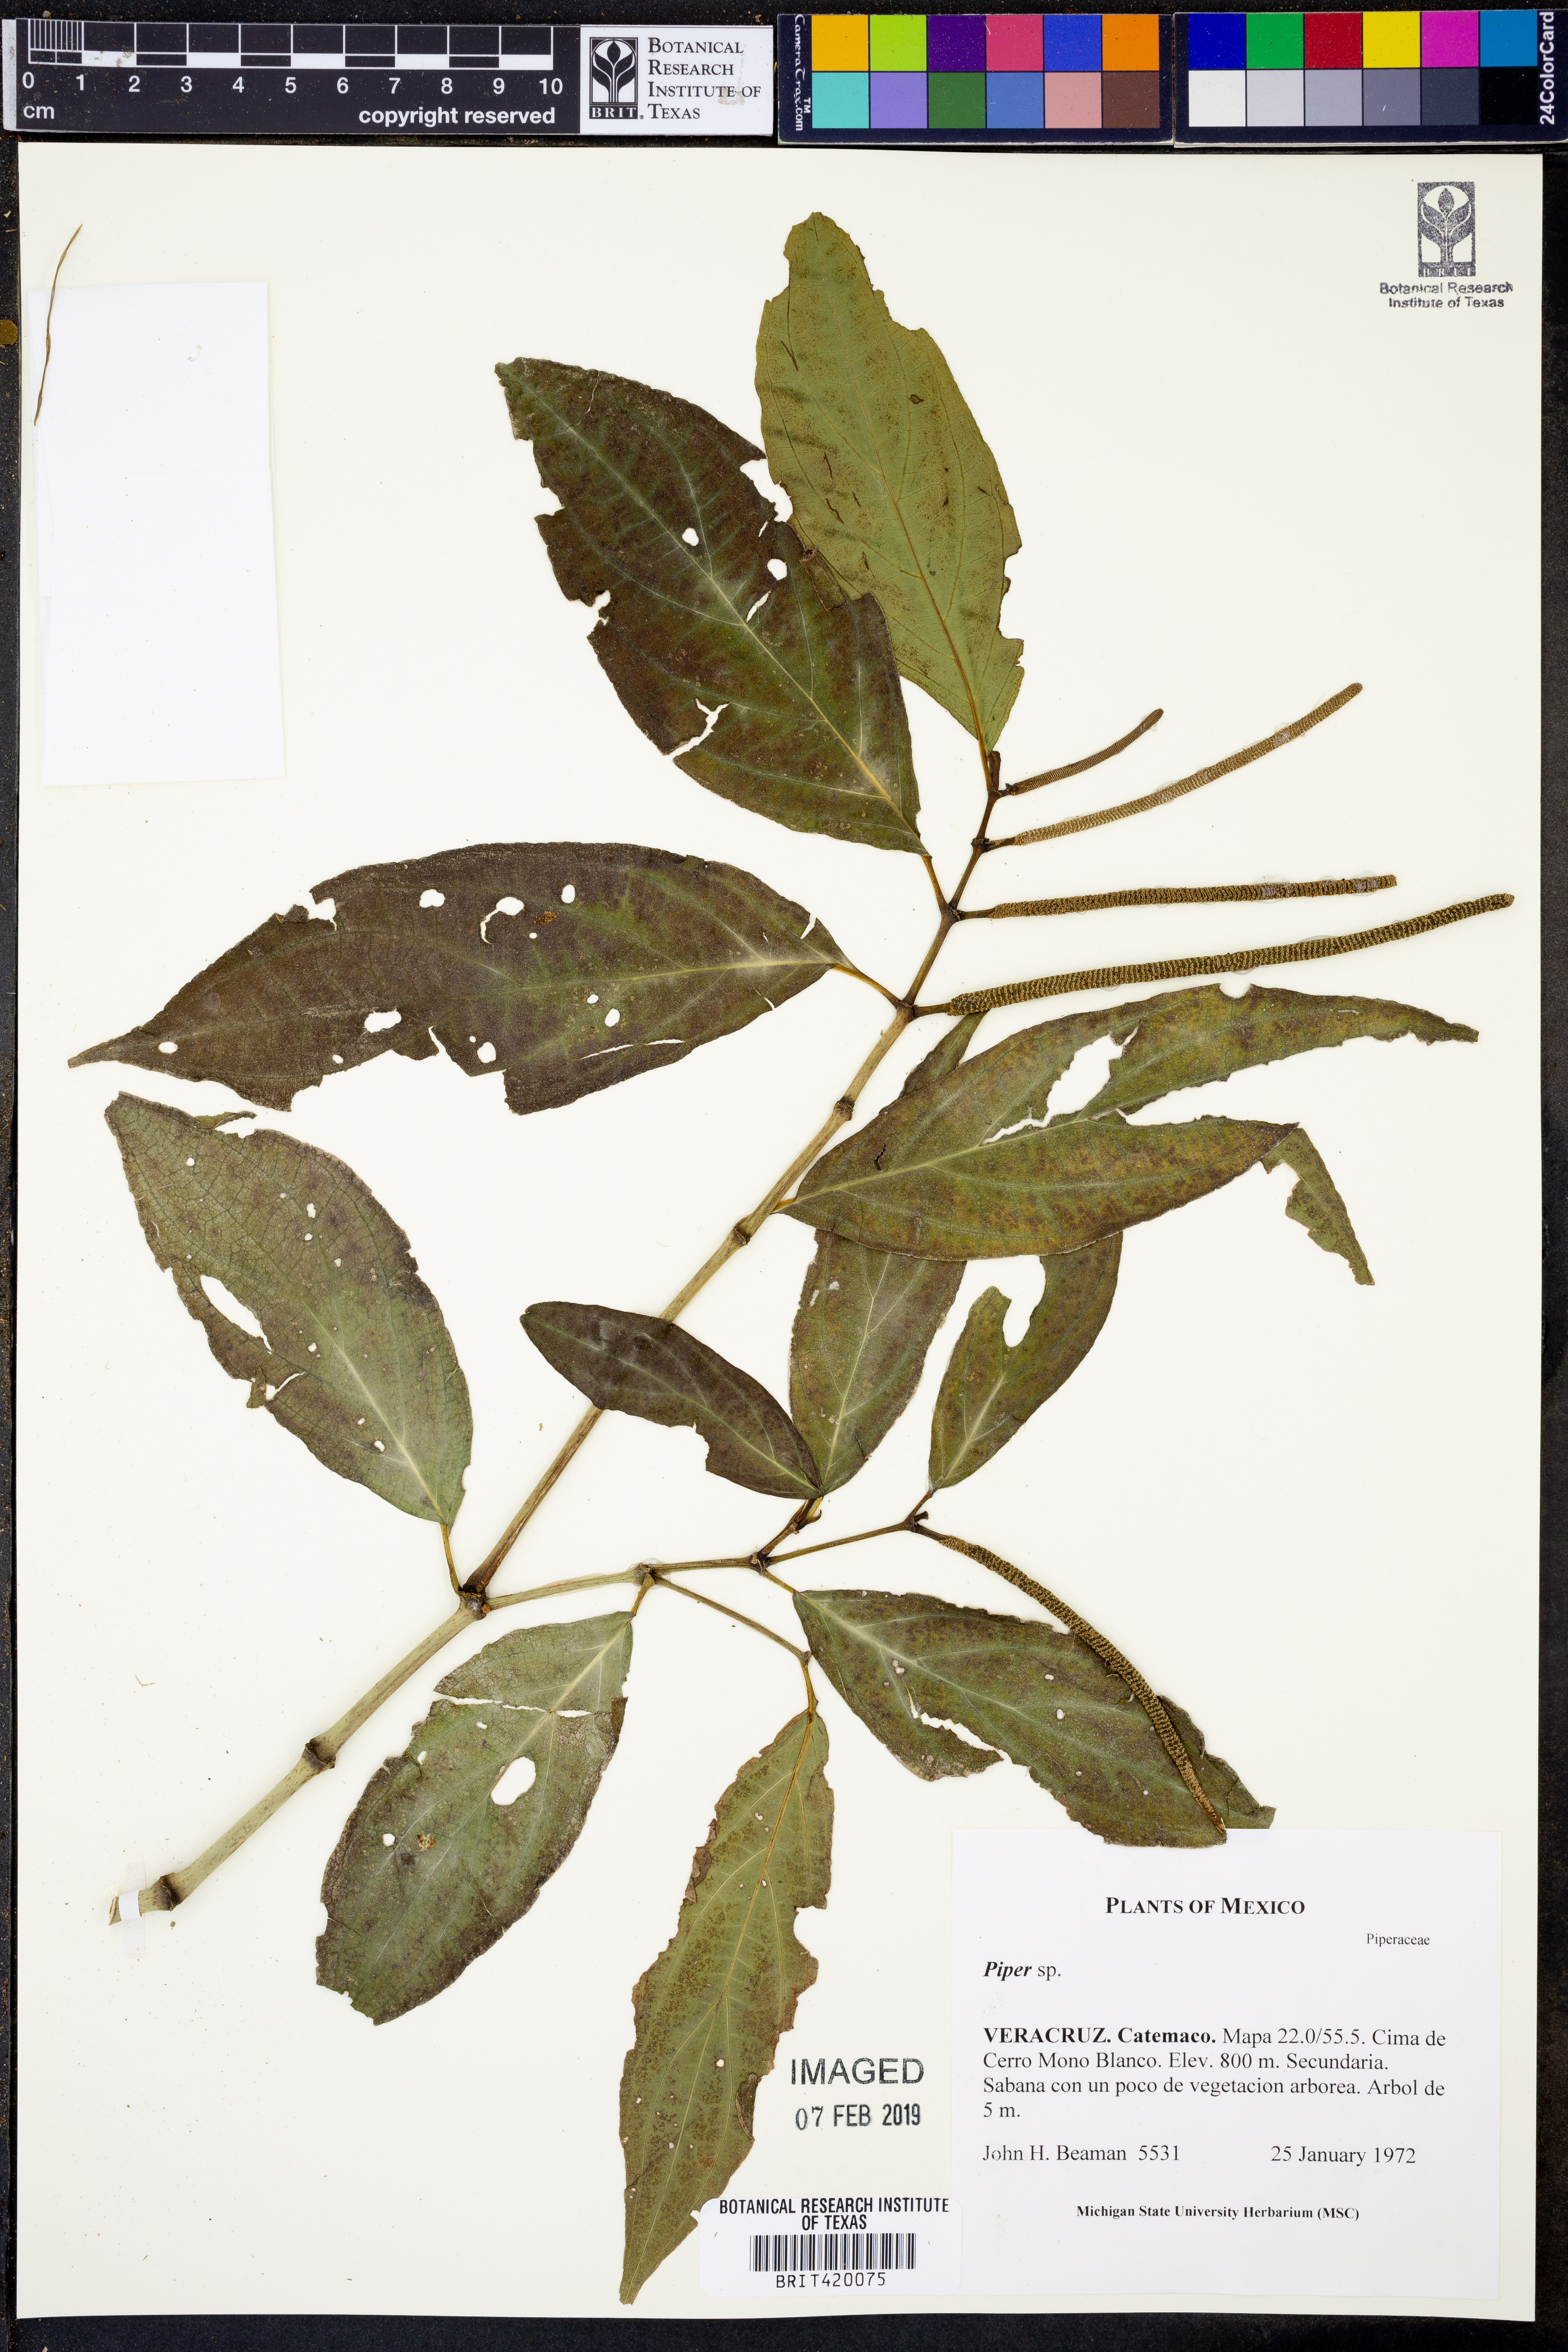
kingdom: Plantae
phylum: Tracheophyta
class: Magnoliopsida
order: Piperales
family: Piperaceae
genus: Piper
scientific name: Piper
